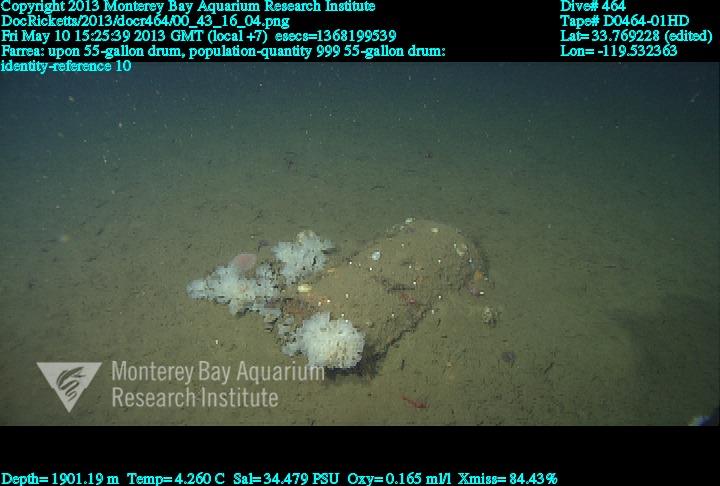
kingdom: Animalia
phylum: Porifera
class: Hexactinellida
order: Sceptrulophora
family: Farreidae
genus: Farrea
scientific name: Farrea
